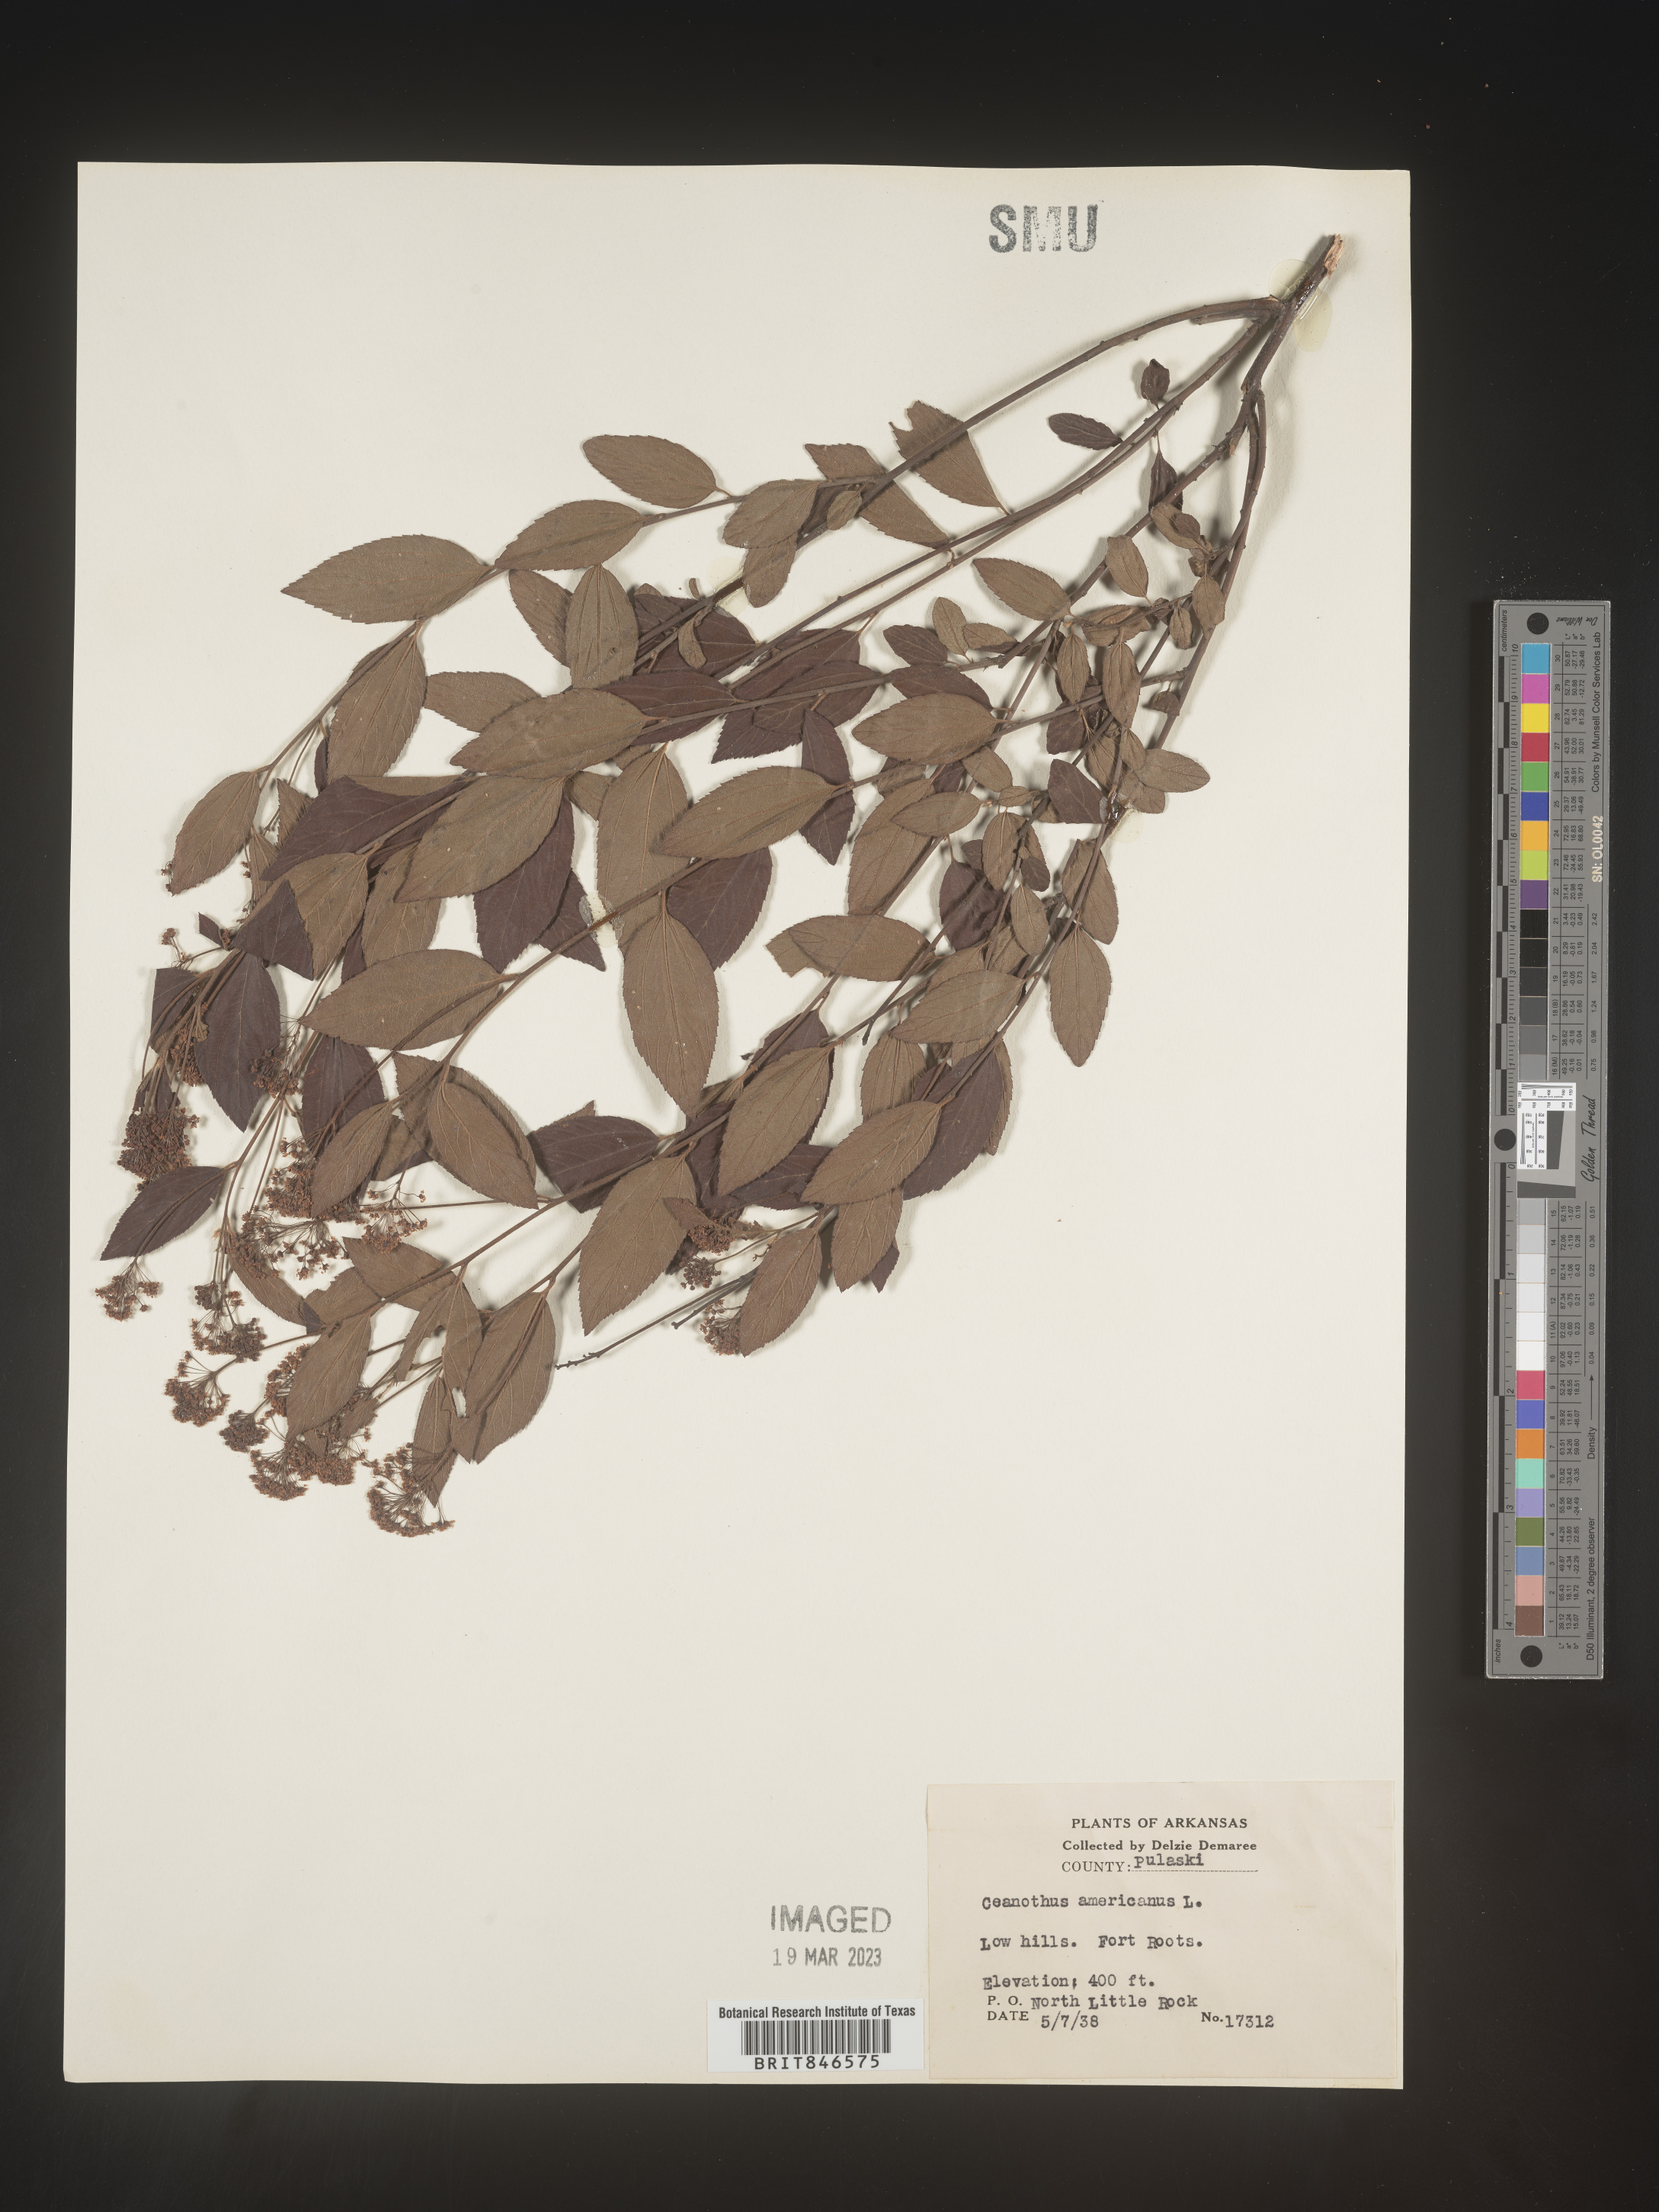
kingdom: Plantae
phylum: Tracheophyta
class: Magnoliopsida
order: Rosales
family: Rhamnaceae
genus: Ceanothus
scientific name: Ceanothus americanus
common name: Redroot
